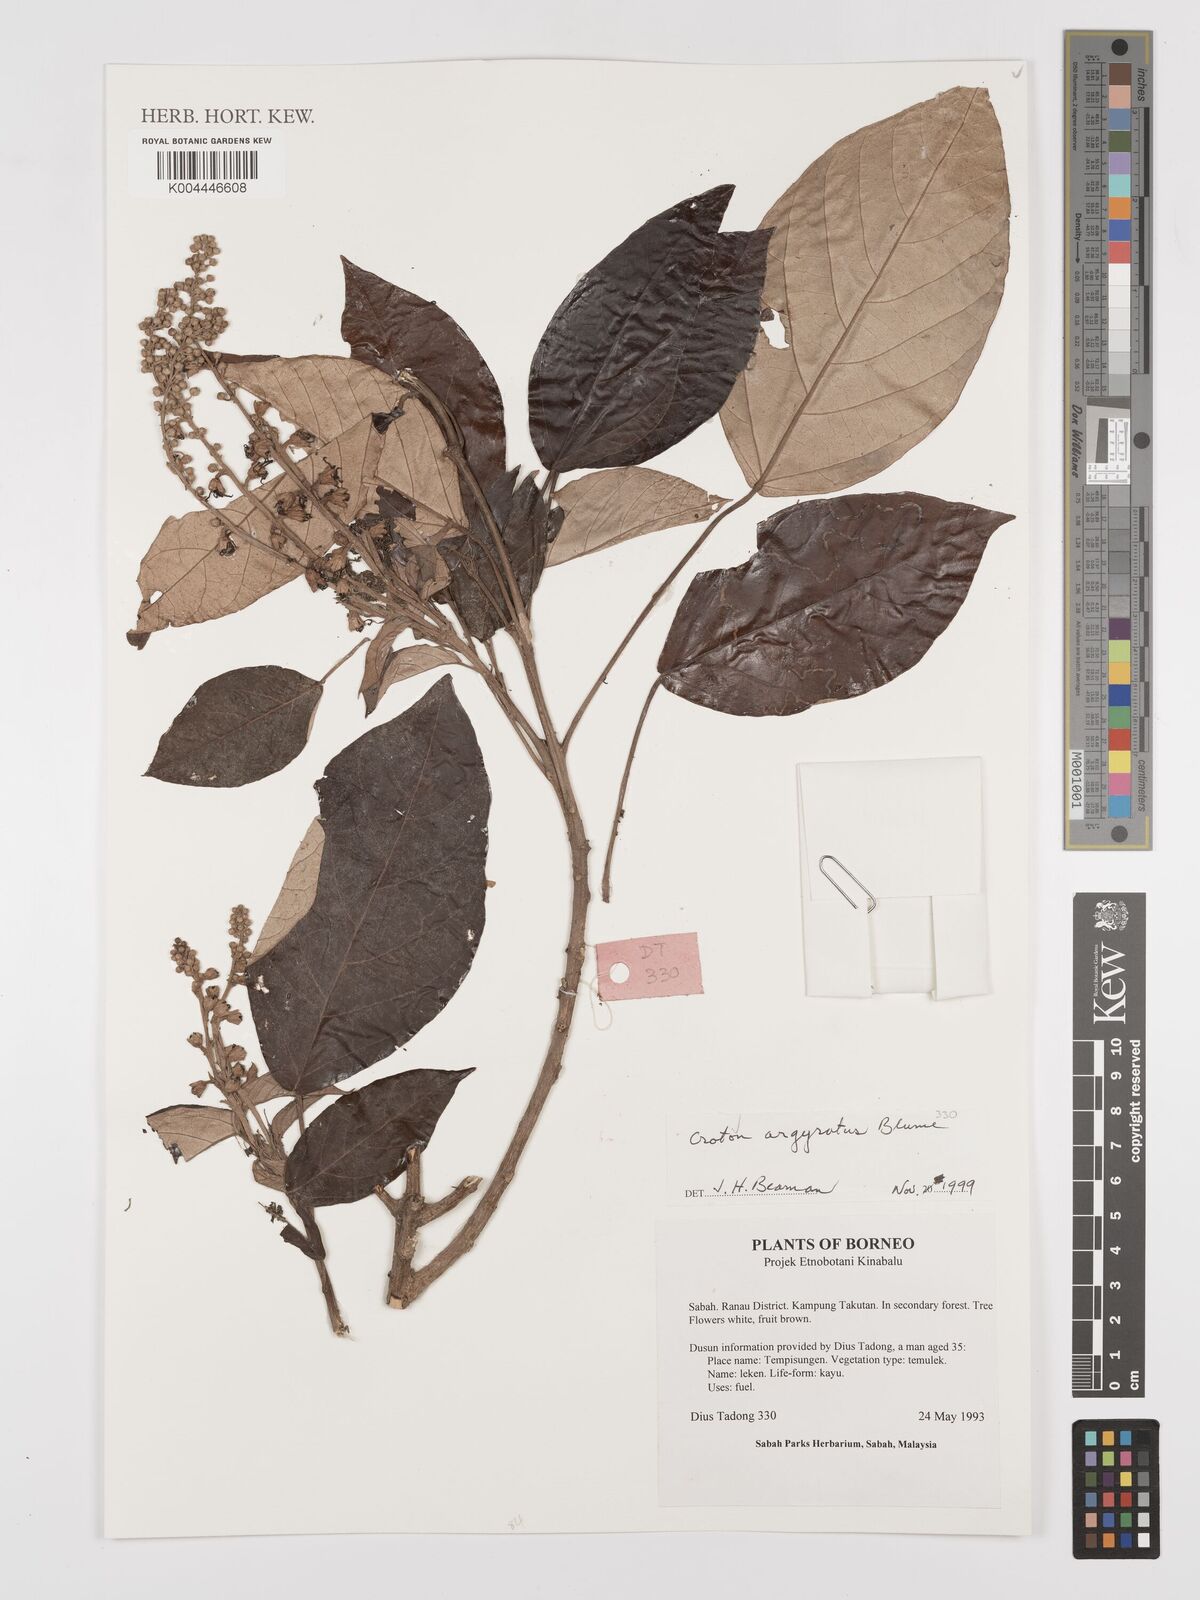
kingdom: Plantae
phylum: Tracheophyta
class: Magnoliopsida
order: Malpighiales
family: Euphorbiaceae
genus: Croton
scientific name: Croton argyratus
